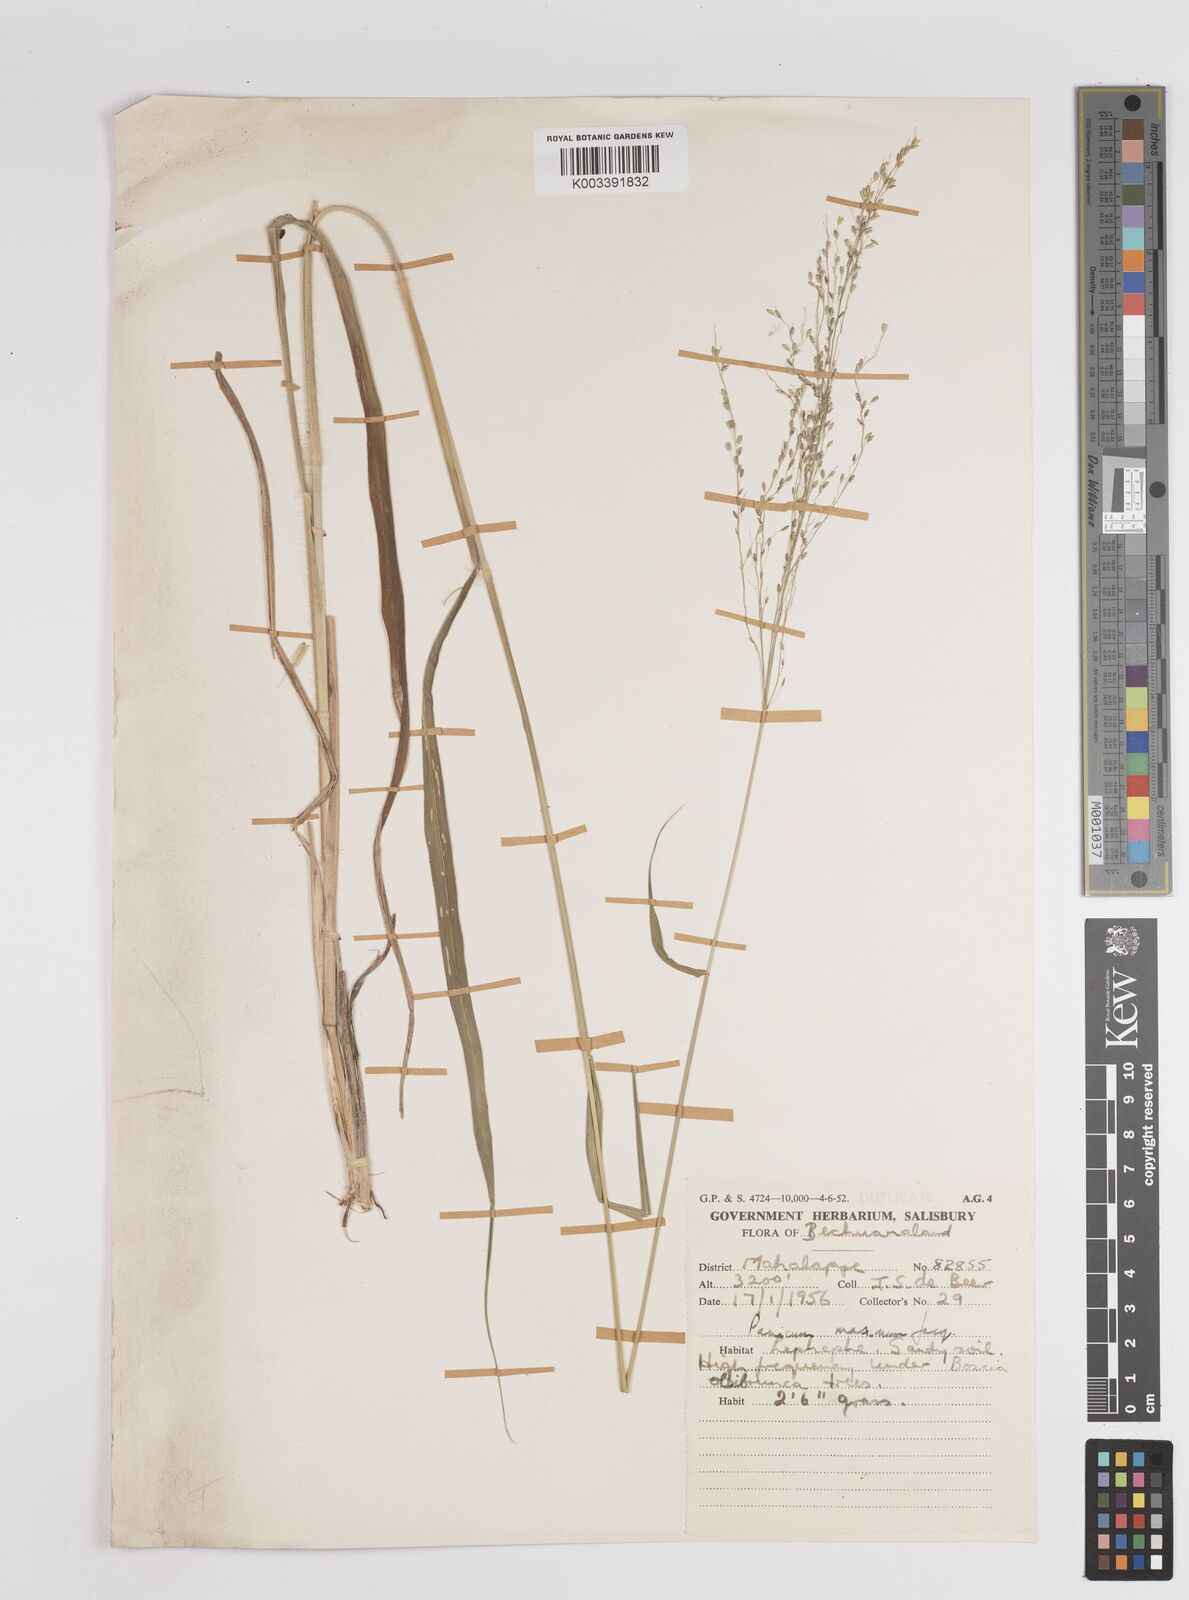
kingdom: Plantae
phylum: Tracheophyta
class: Liliopsida
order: Poales
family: Poaceae
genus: Megathyrsus
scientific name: Megathyrsus maximus
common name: Guineagrass
